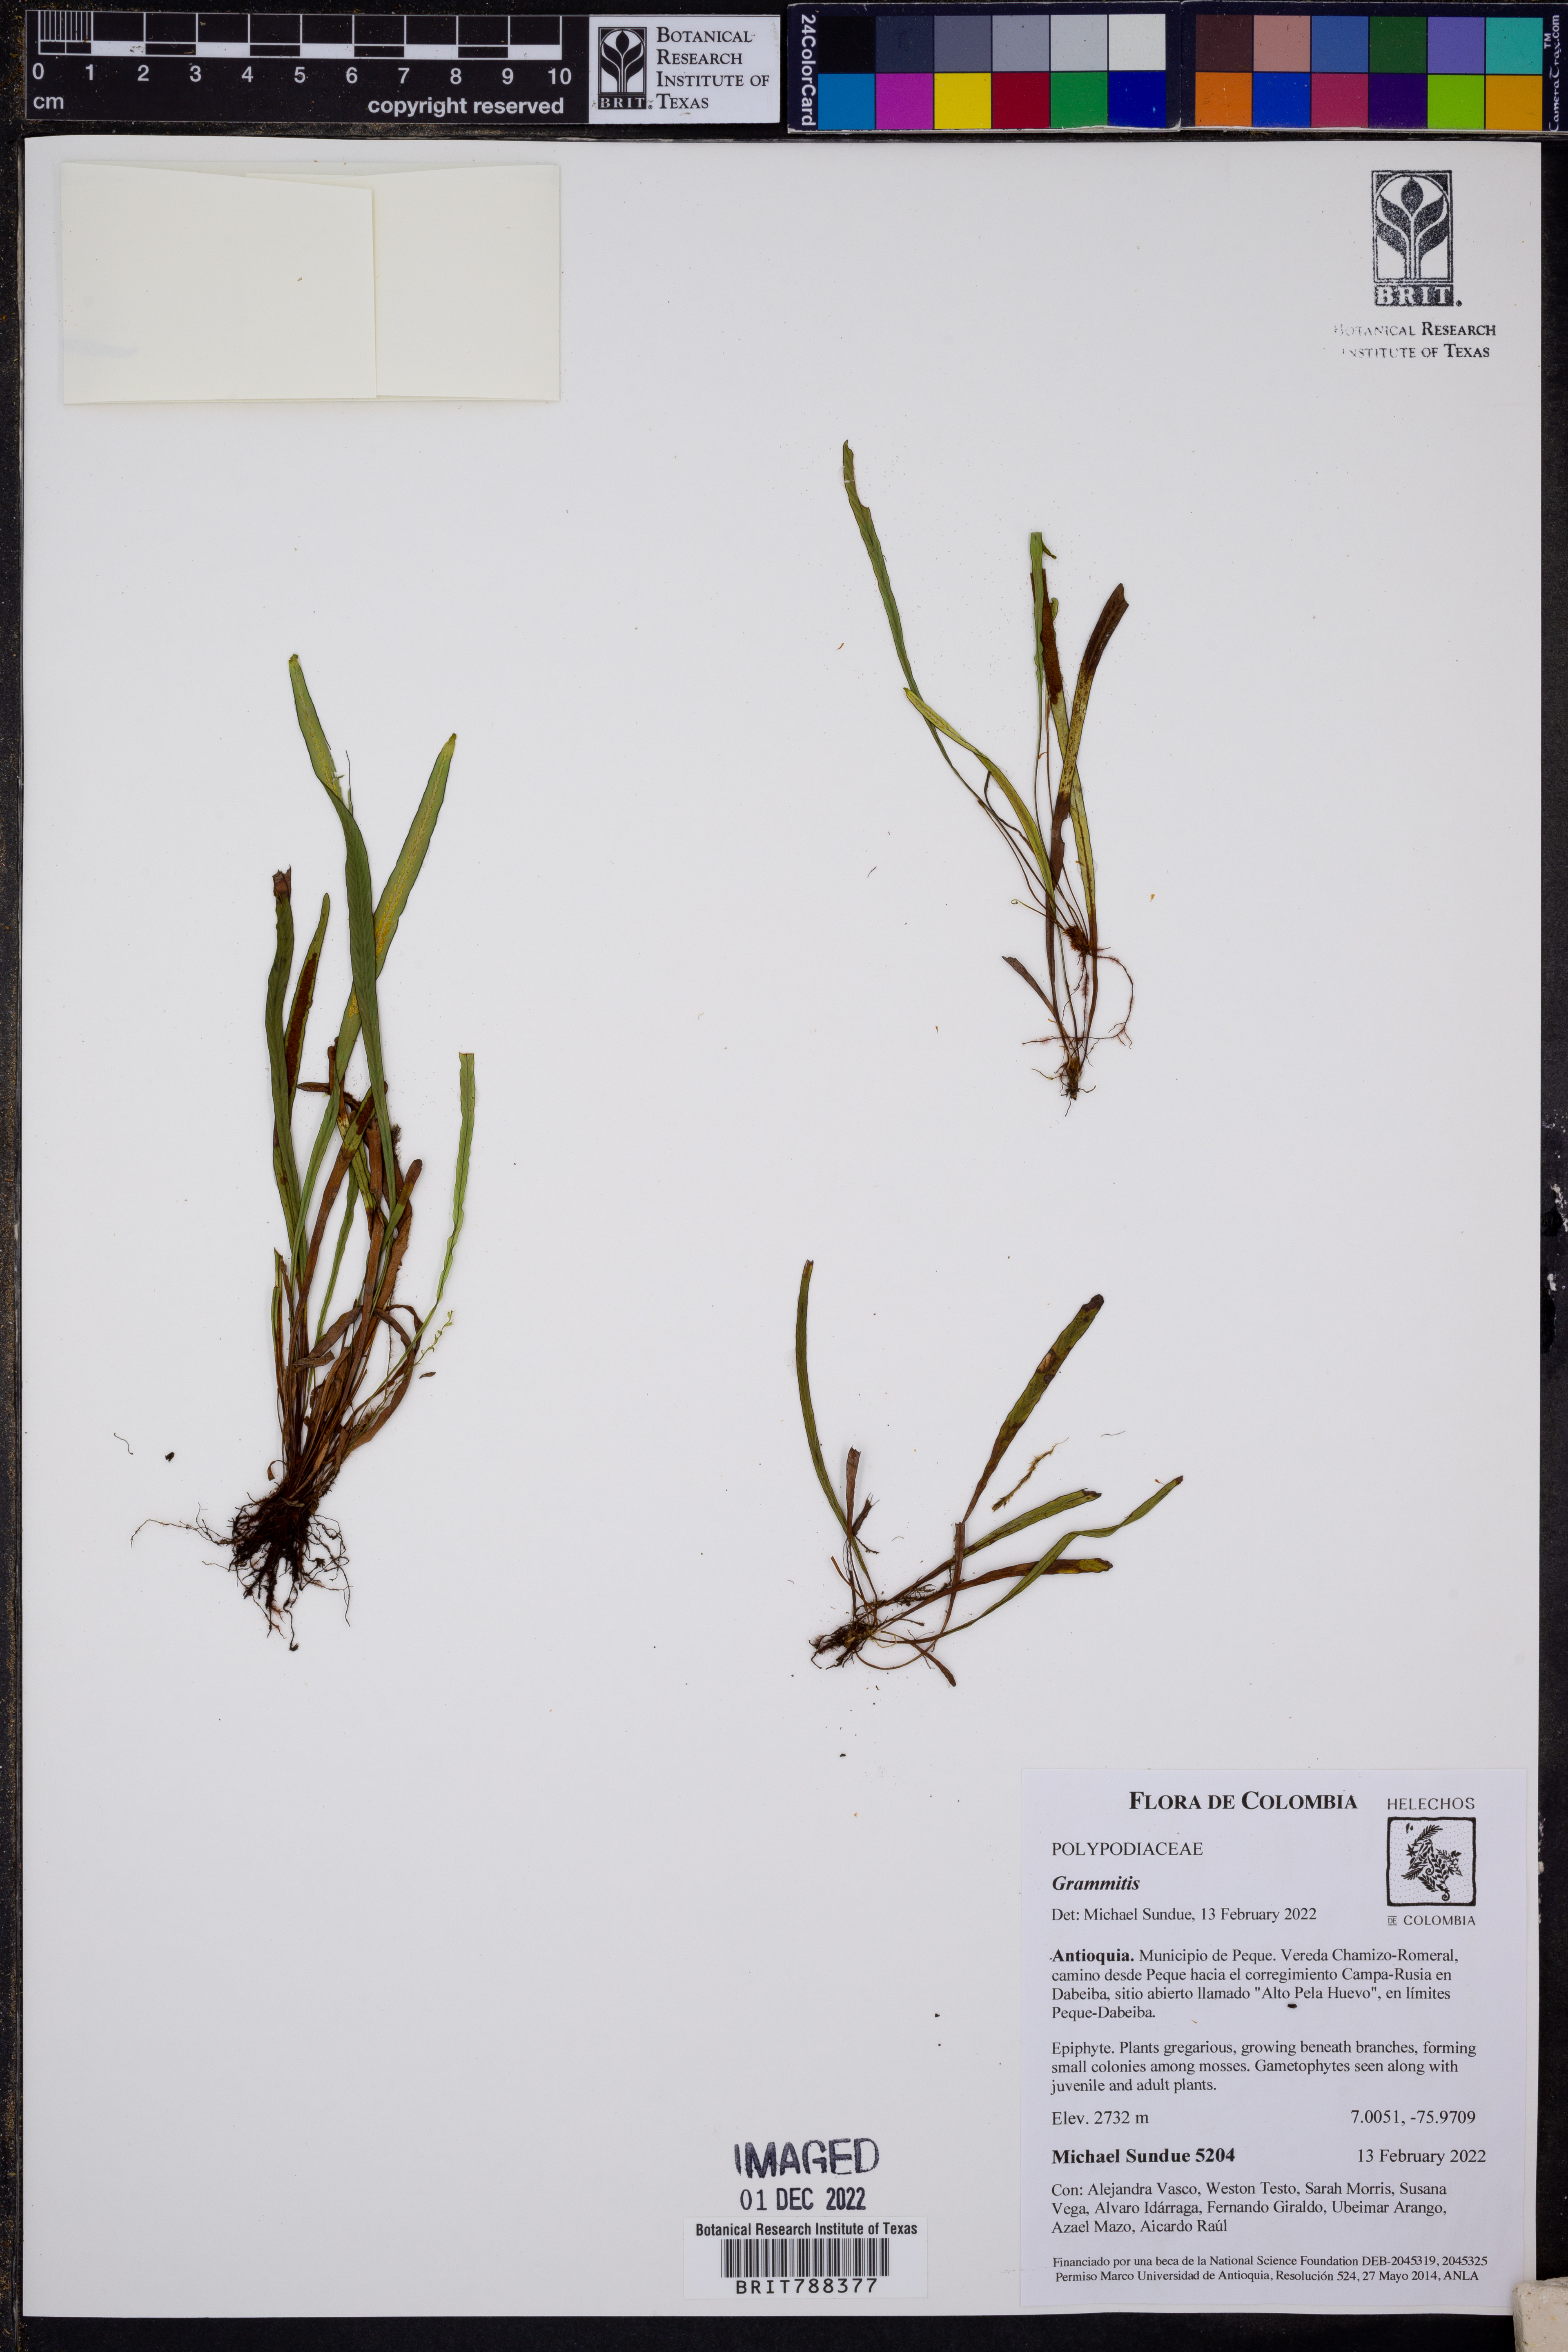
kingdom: Plantae
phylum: Tracheophyta
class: Polypodiopsida
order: Polypodiales
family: Polypodiaceae
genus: Grammitis
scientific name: Grammitis bryophila
